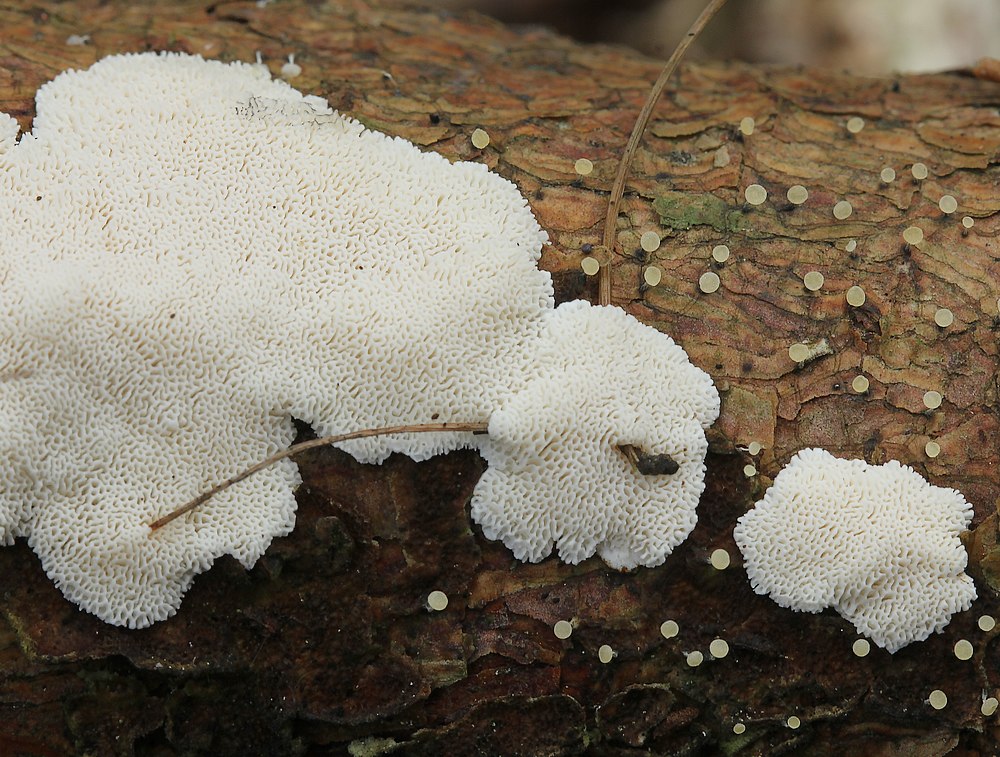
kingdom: Fungi
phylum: Basidiomycota
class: Agaricomycetes
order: Polyporales
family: Gelatoporiaceae
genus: Cinereomyces
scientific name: Cinereomyces lindbladii
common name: almindelig gråporesvamp
